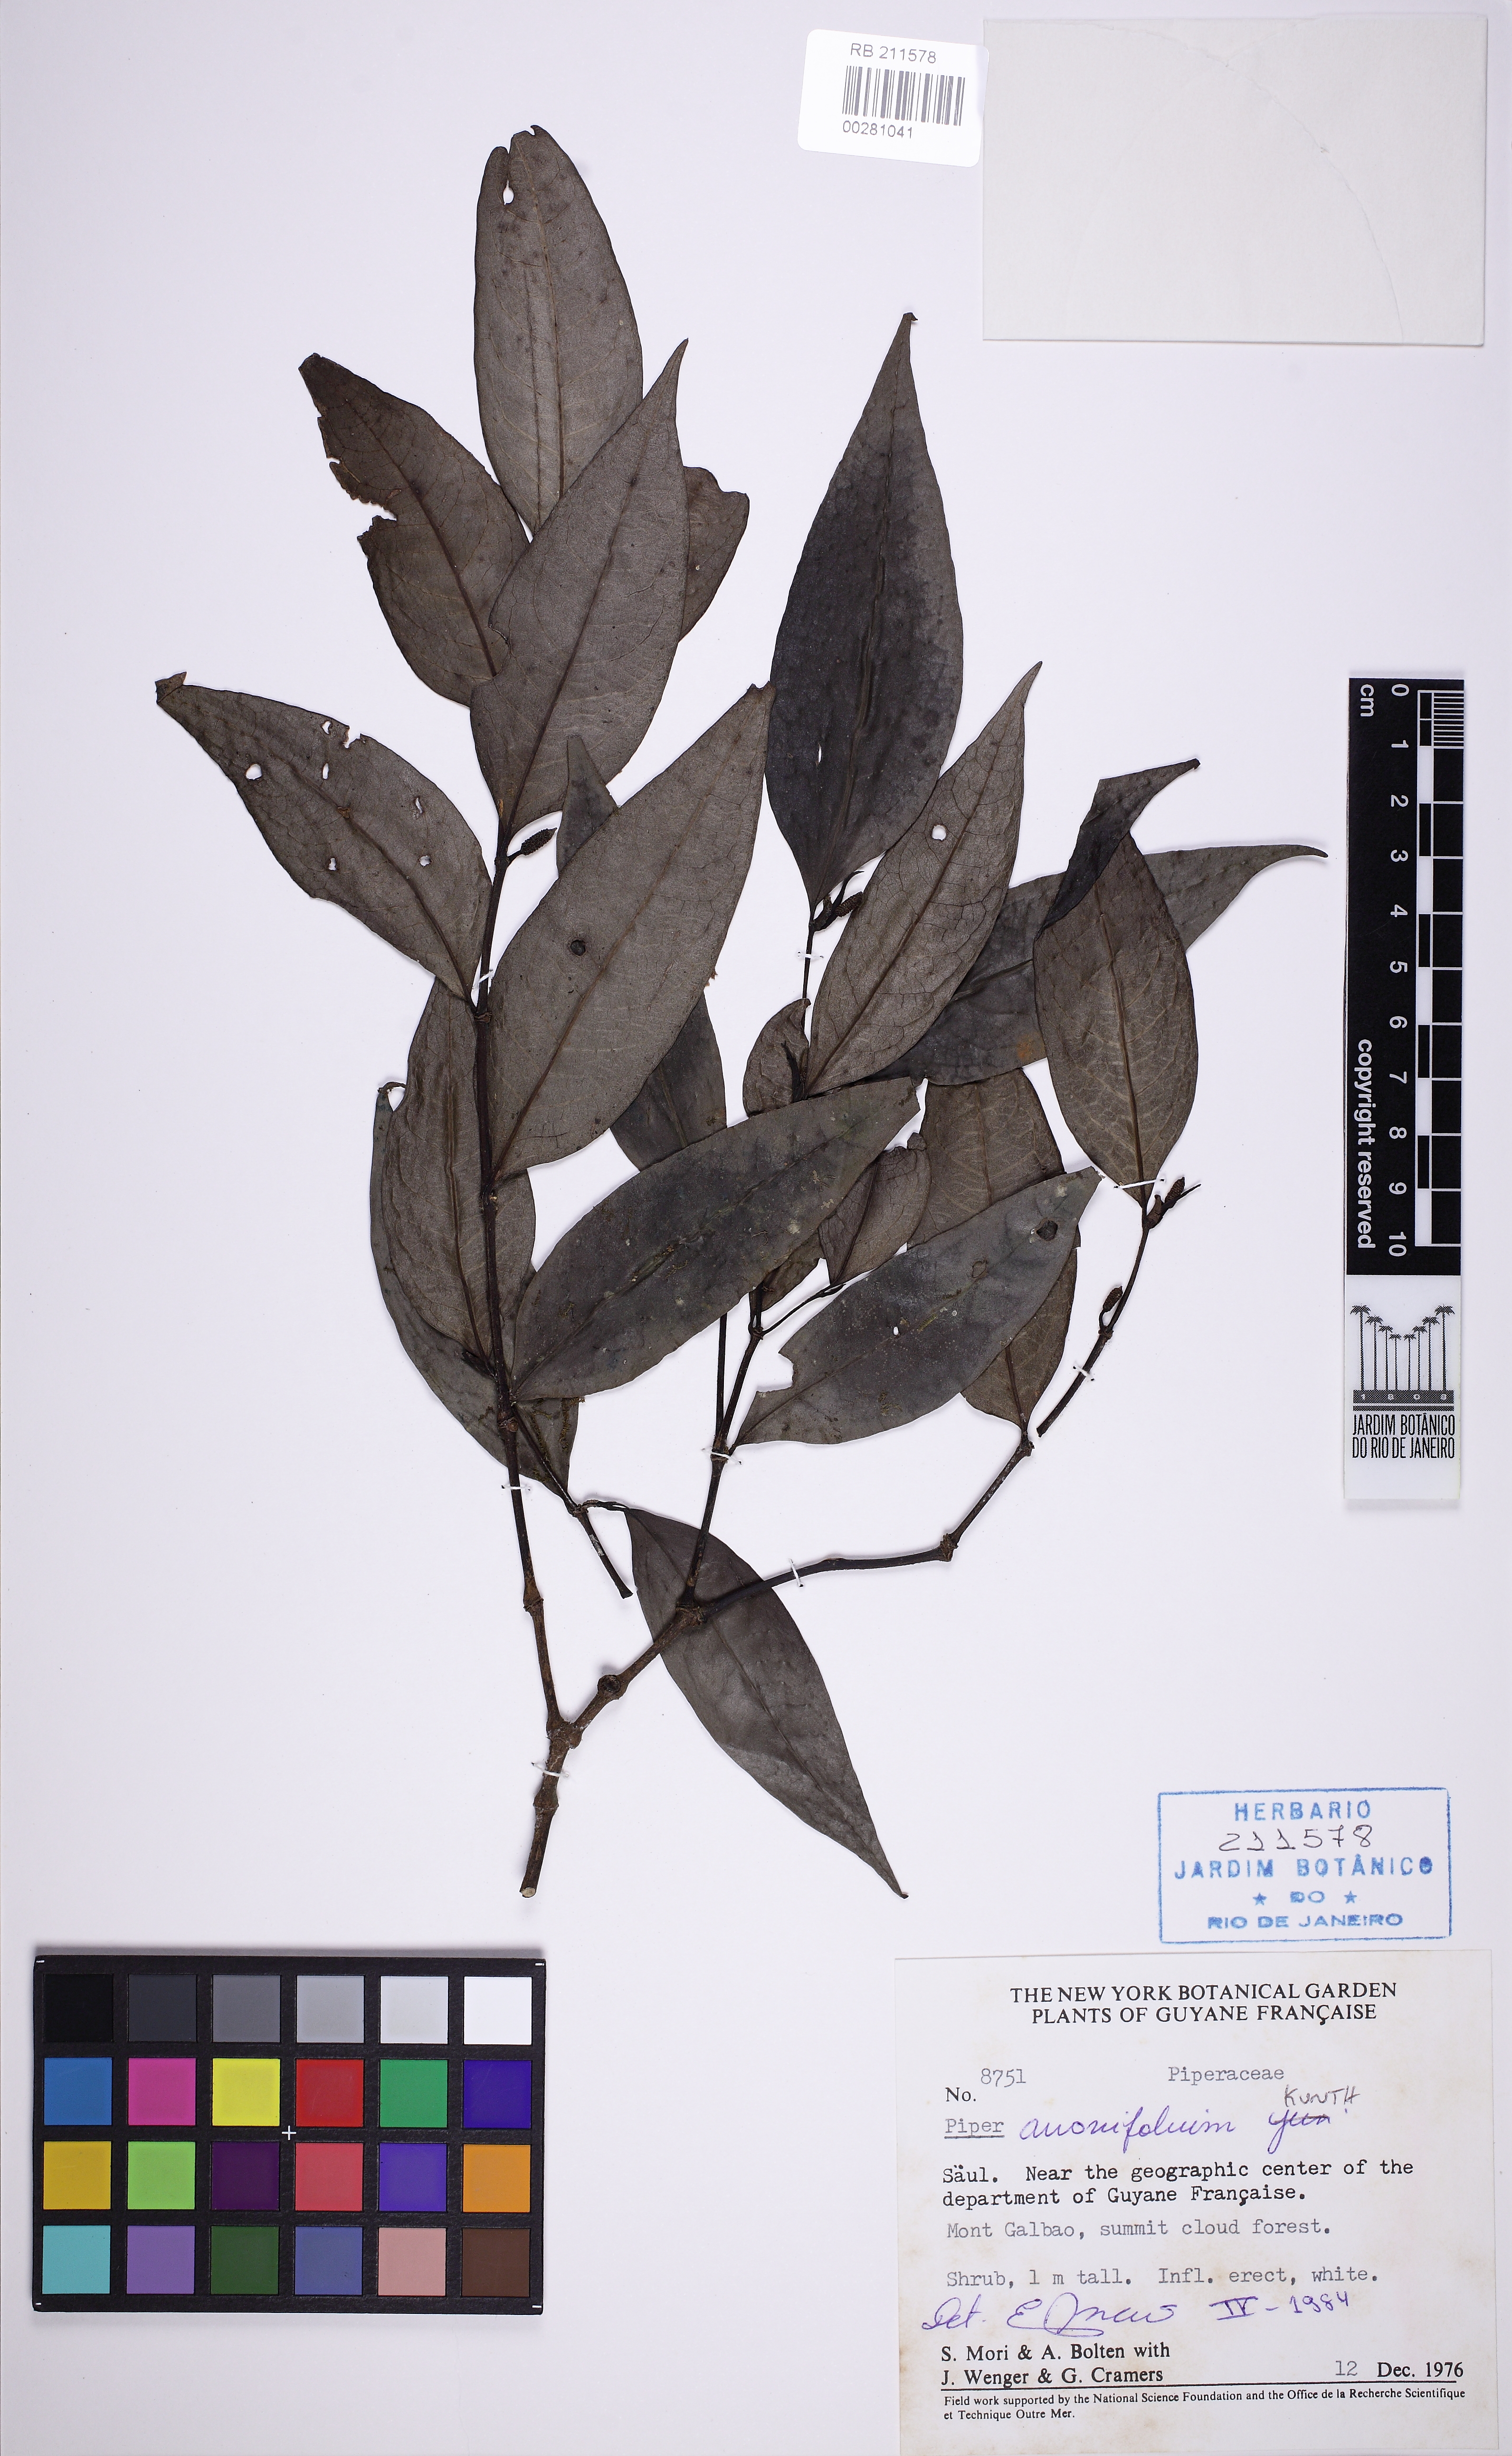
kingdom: Plantae
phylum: Tracheophyta
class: Magnoliopsida
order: Piperales
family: Piperaceae
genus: Piper
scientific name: Piper anonifolium
